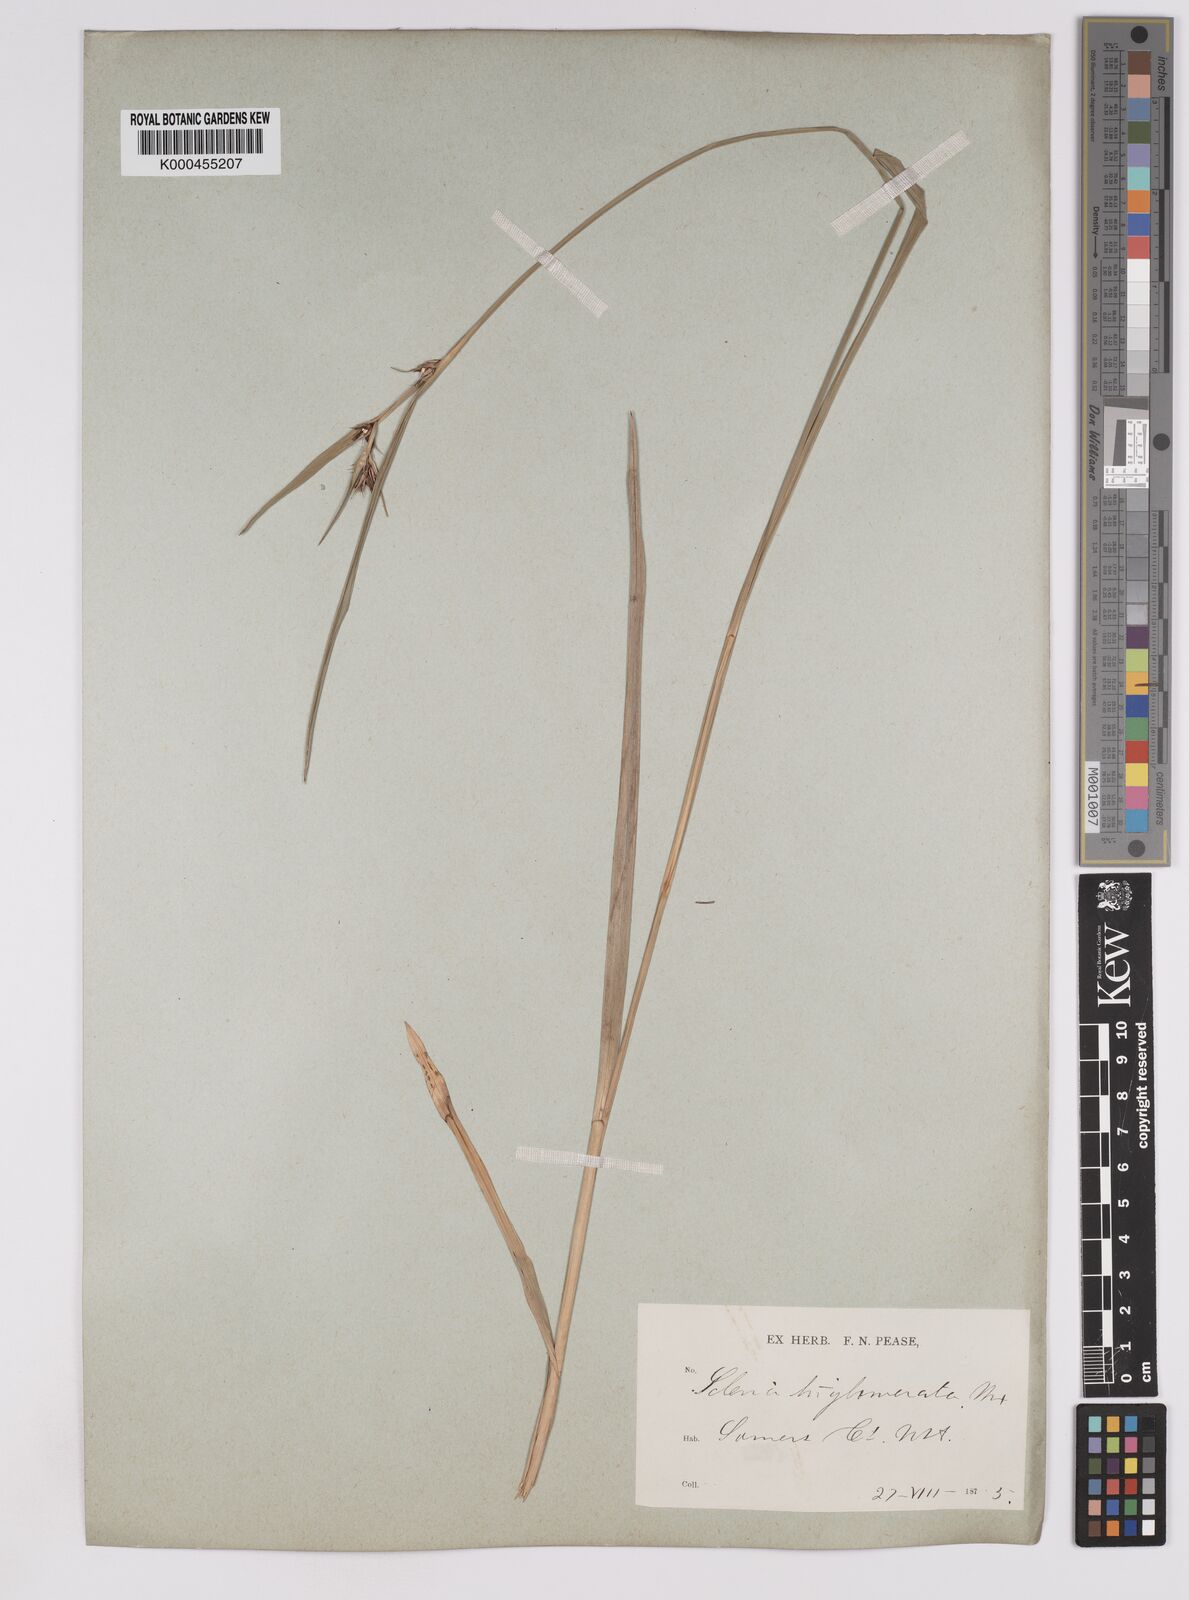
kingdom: Plantae
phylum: Tracheophyta
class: Liliopsida
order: Poales
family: Cyperaceae
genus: Scleria
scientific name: Scleria triglomerata
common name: Whip nutrush
